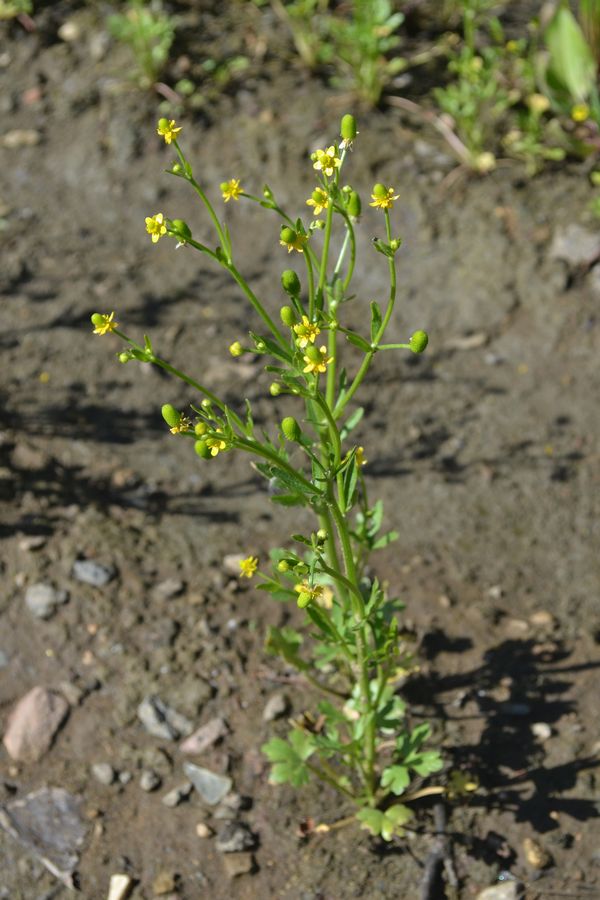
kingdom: Plantae
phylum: Tracheophyta
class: Magnoliopsida
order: Ranunculales
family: Ranunculaceae
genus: Ranunculus
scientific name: Ranunculus sceleratus
